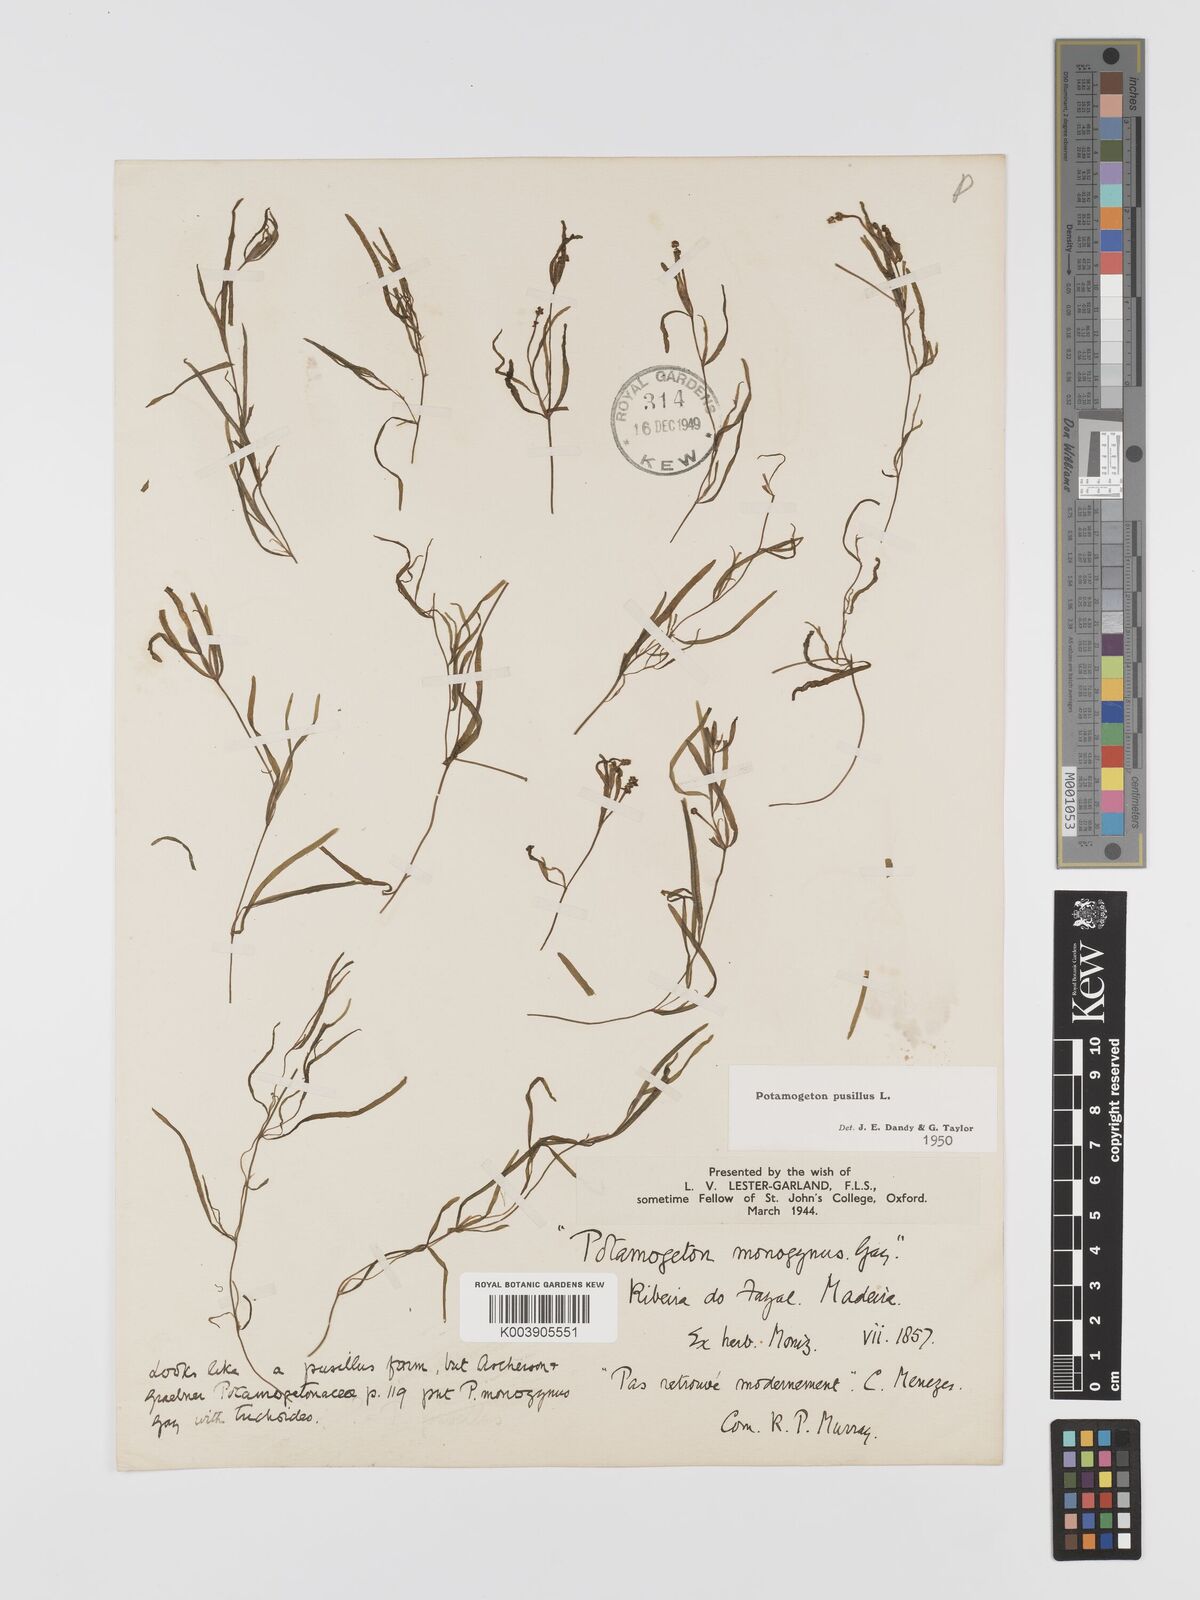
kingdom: Plantae
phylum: Tracheophyta
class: Liliopsida
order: Alismatales
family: Potamogetonaceae
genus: Potamogeton
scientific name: Potamogeton pusillus
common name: Lesser pondweed
